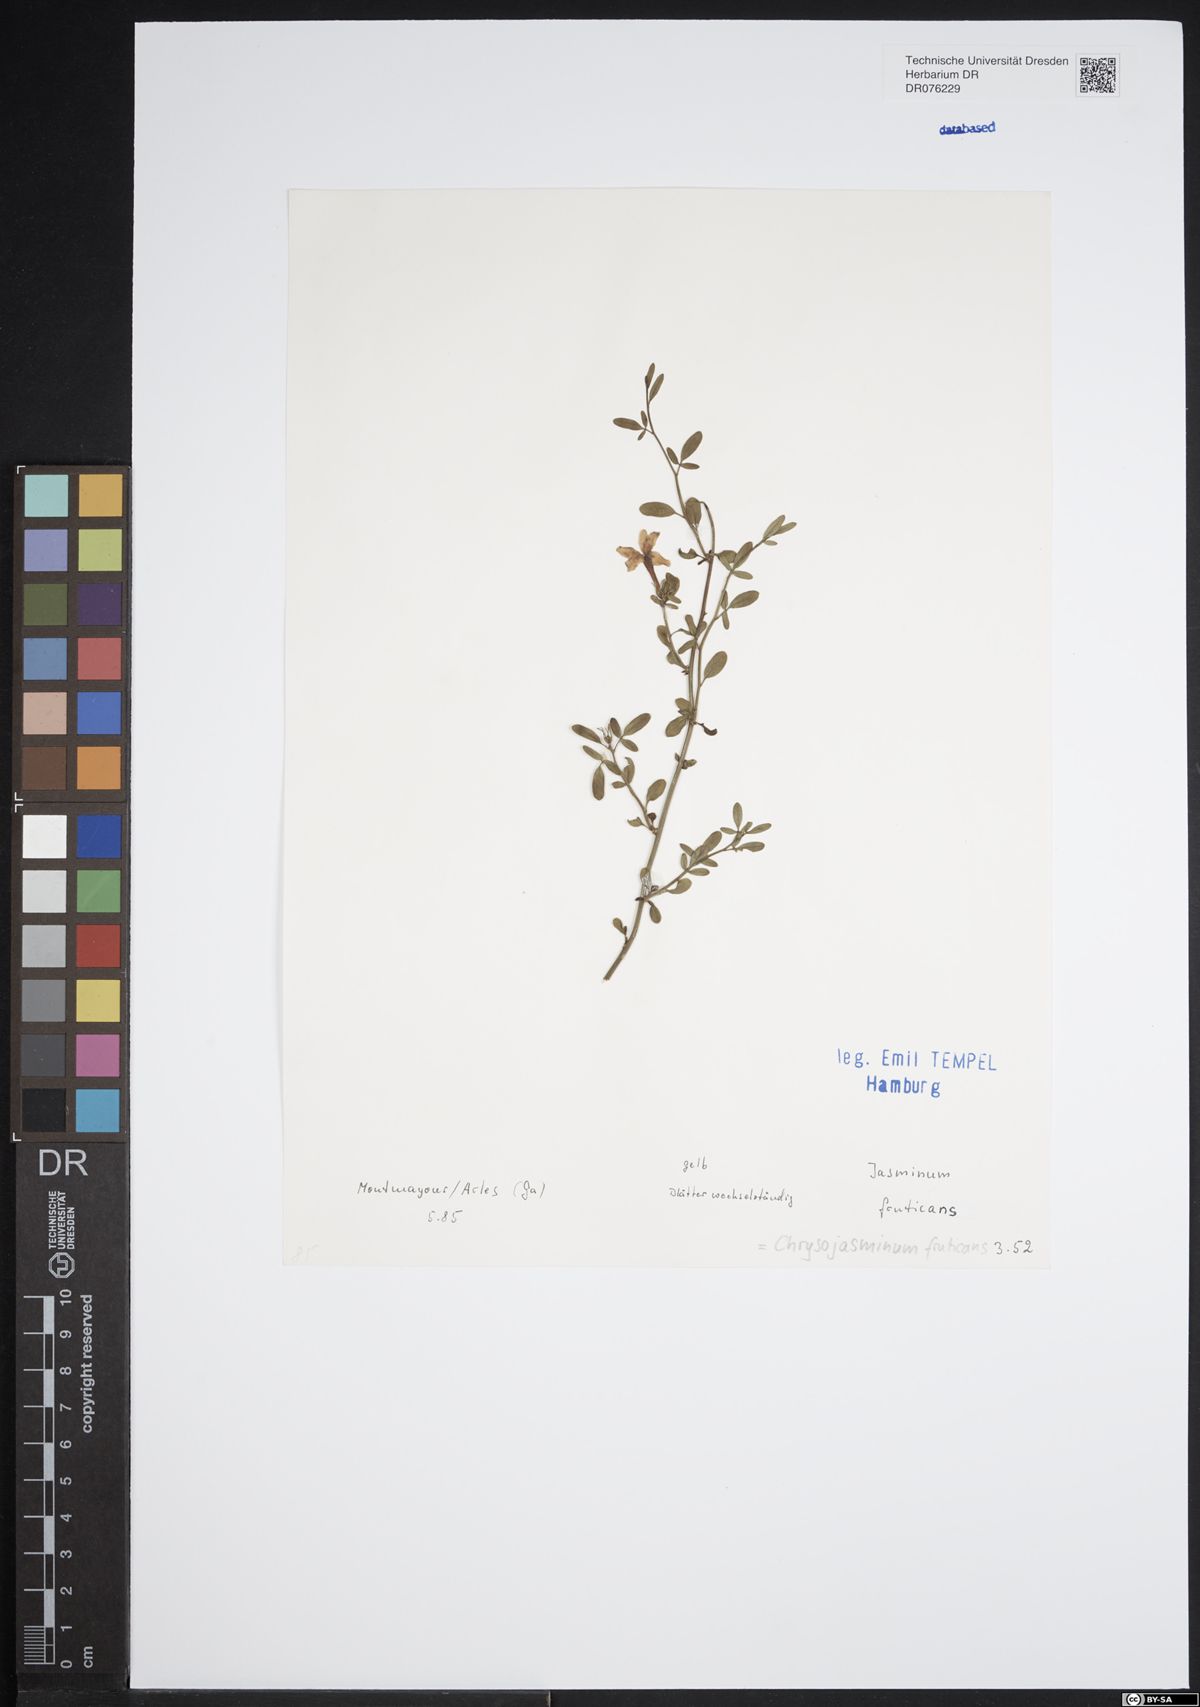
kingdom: Plantae
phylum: Tracheophyta
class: Magnoliopsida
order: Lamiales
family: Oleaceae
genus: Chrysojasminum
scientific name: Chrysojasminum fruticans
